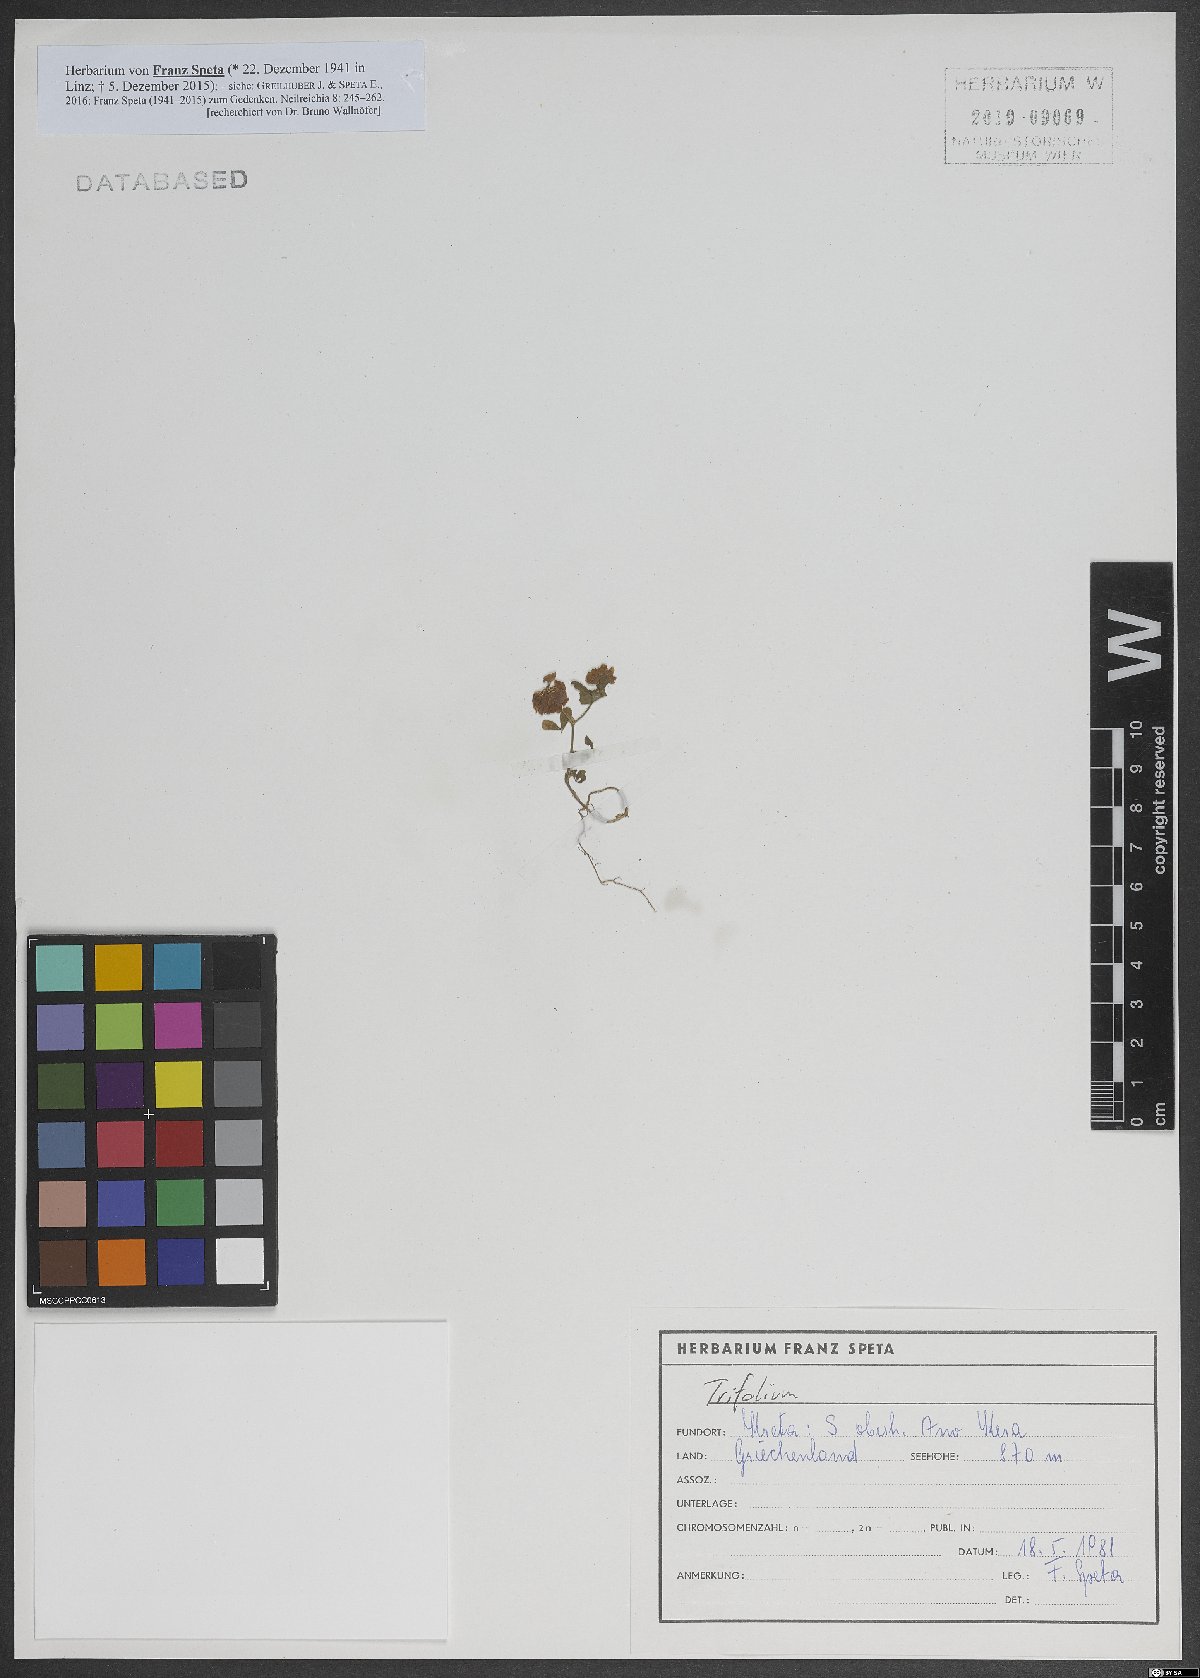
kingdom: Plantae
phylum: Tracheophyta
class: Magnoliopsida
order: Fabales
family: Fabaceae
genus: Trifolium
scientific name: Trifolium campestre
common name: Field clover
